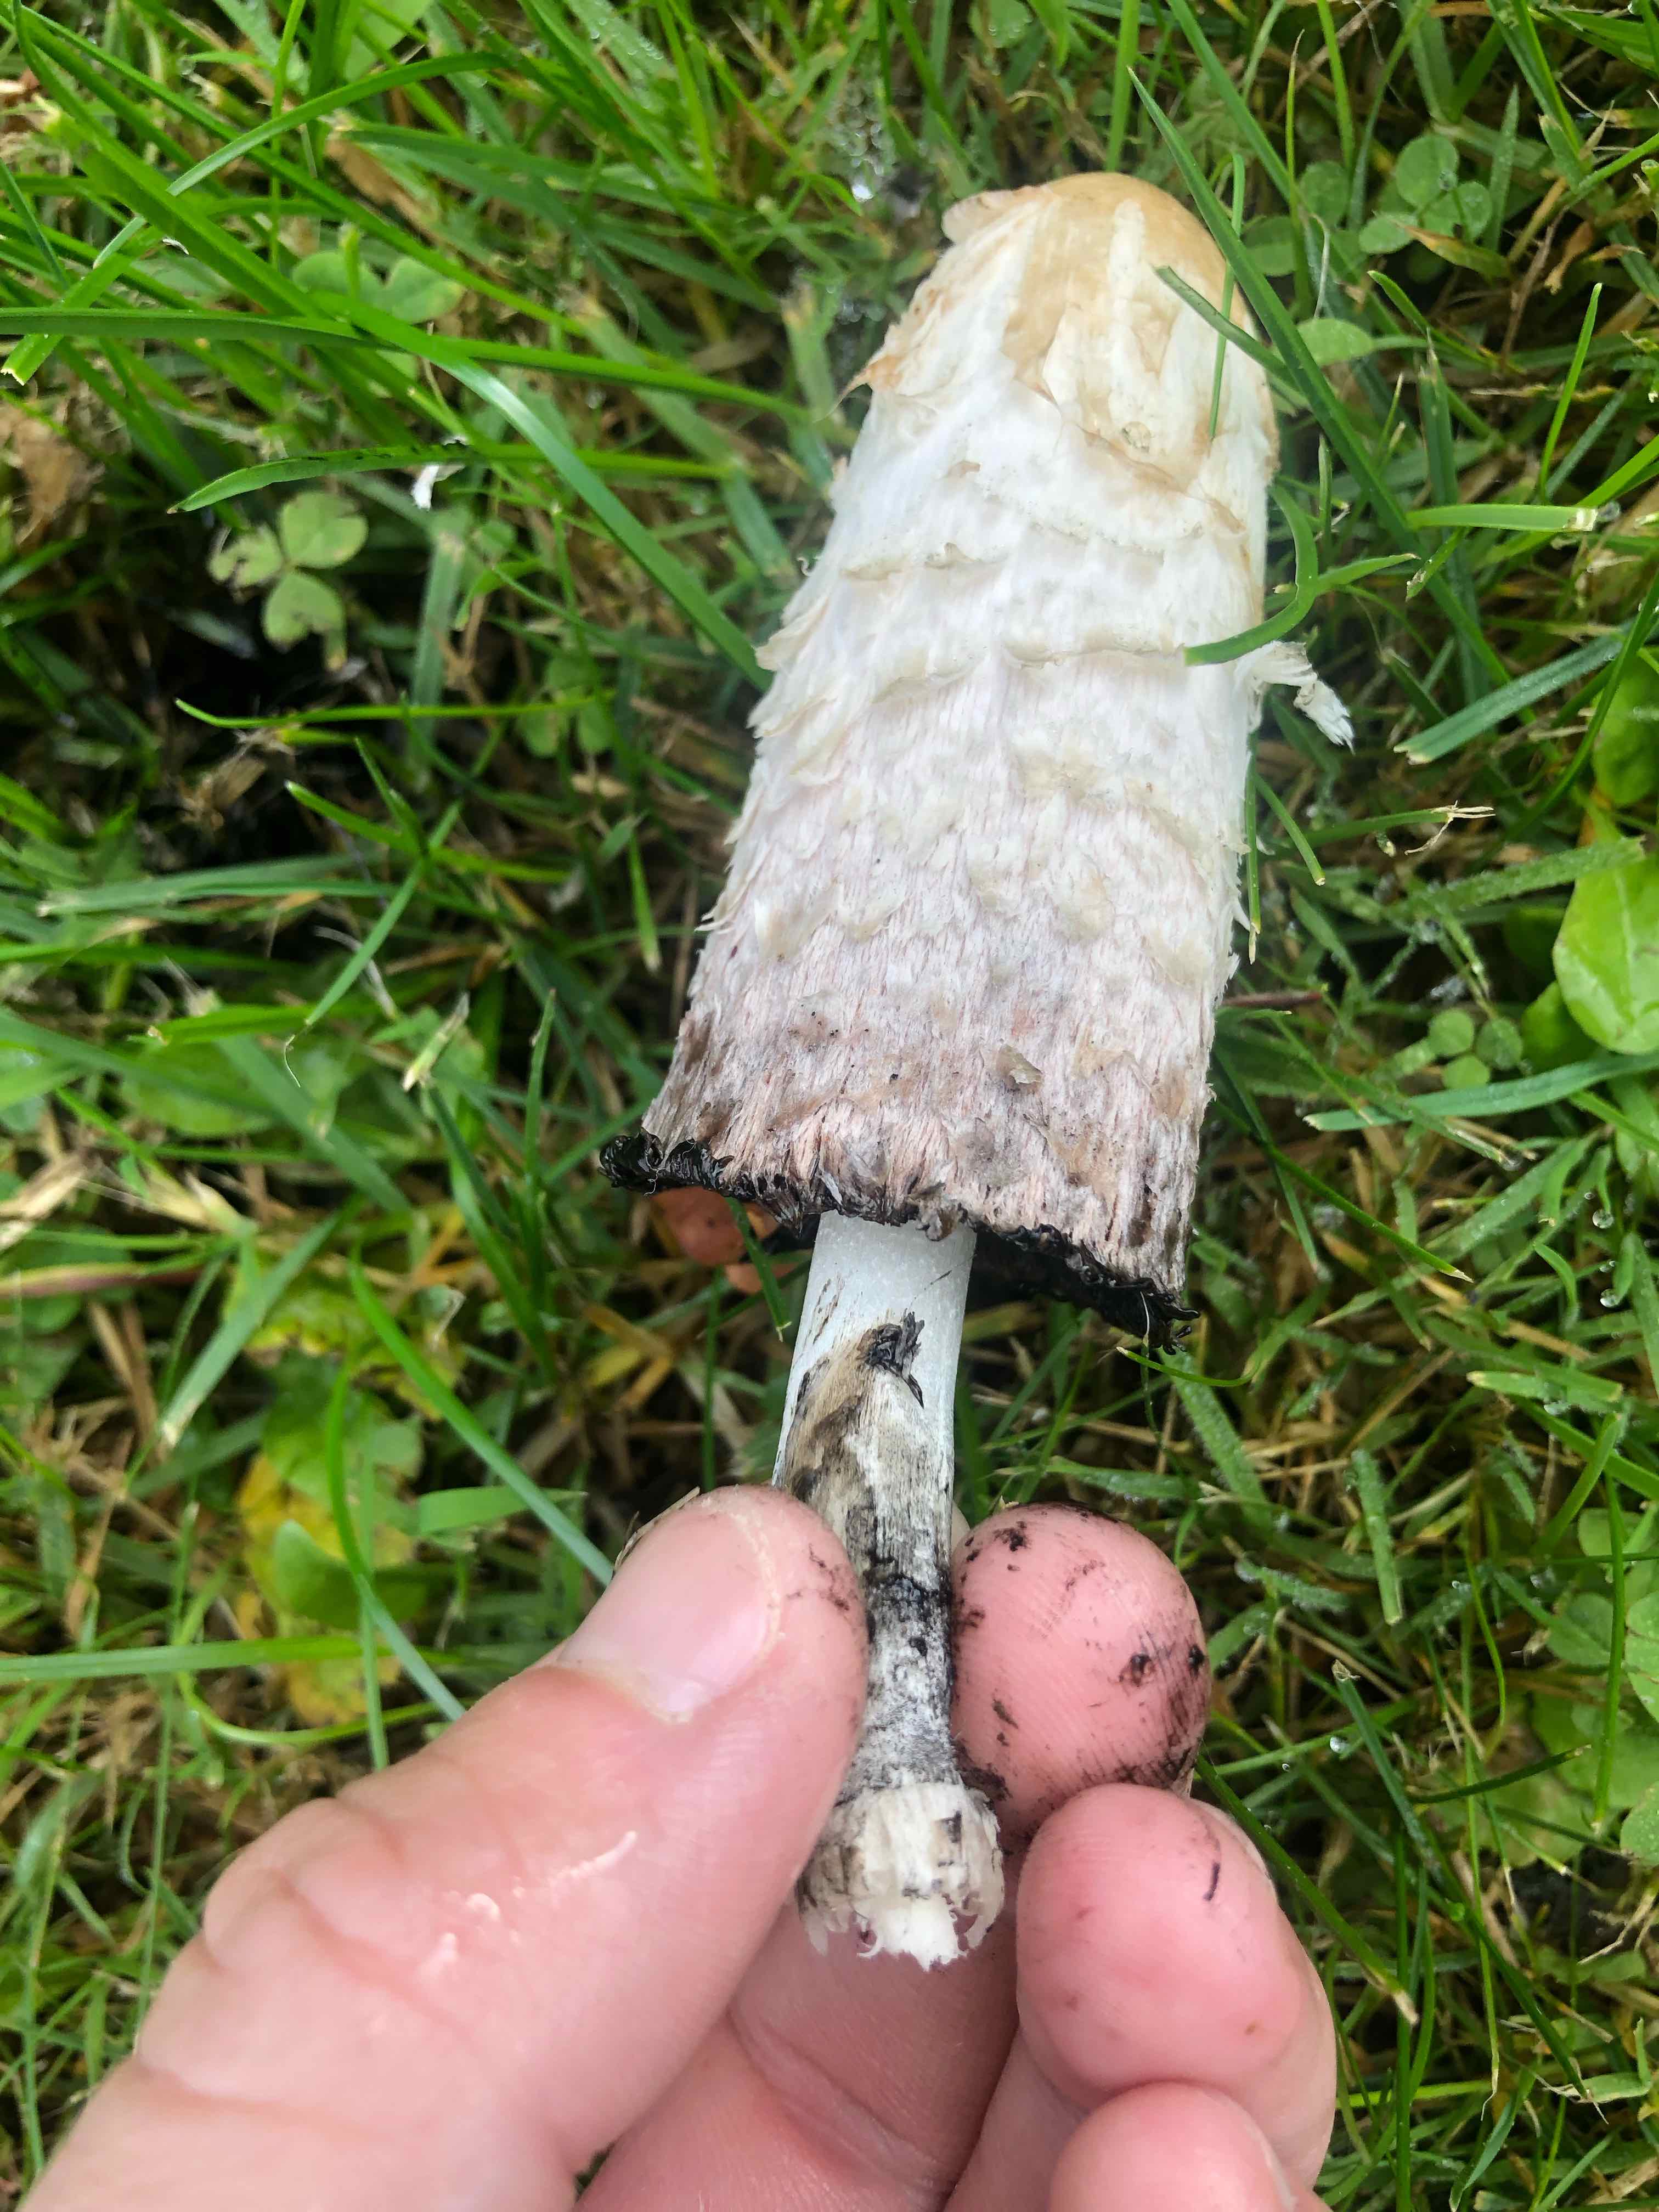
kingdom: Fungi
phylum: Basidiomycota
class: Agaricomycetes
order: Agaricales
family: Agaricaceae
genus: Coprinus
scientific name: Coprinus comatus
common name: stor parykhat
